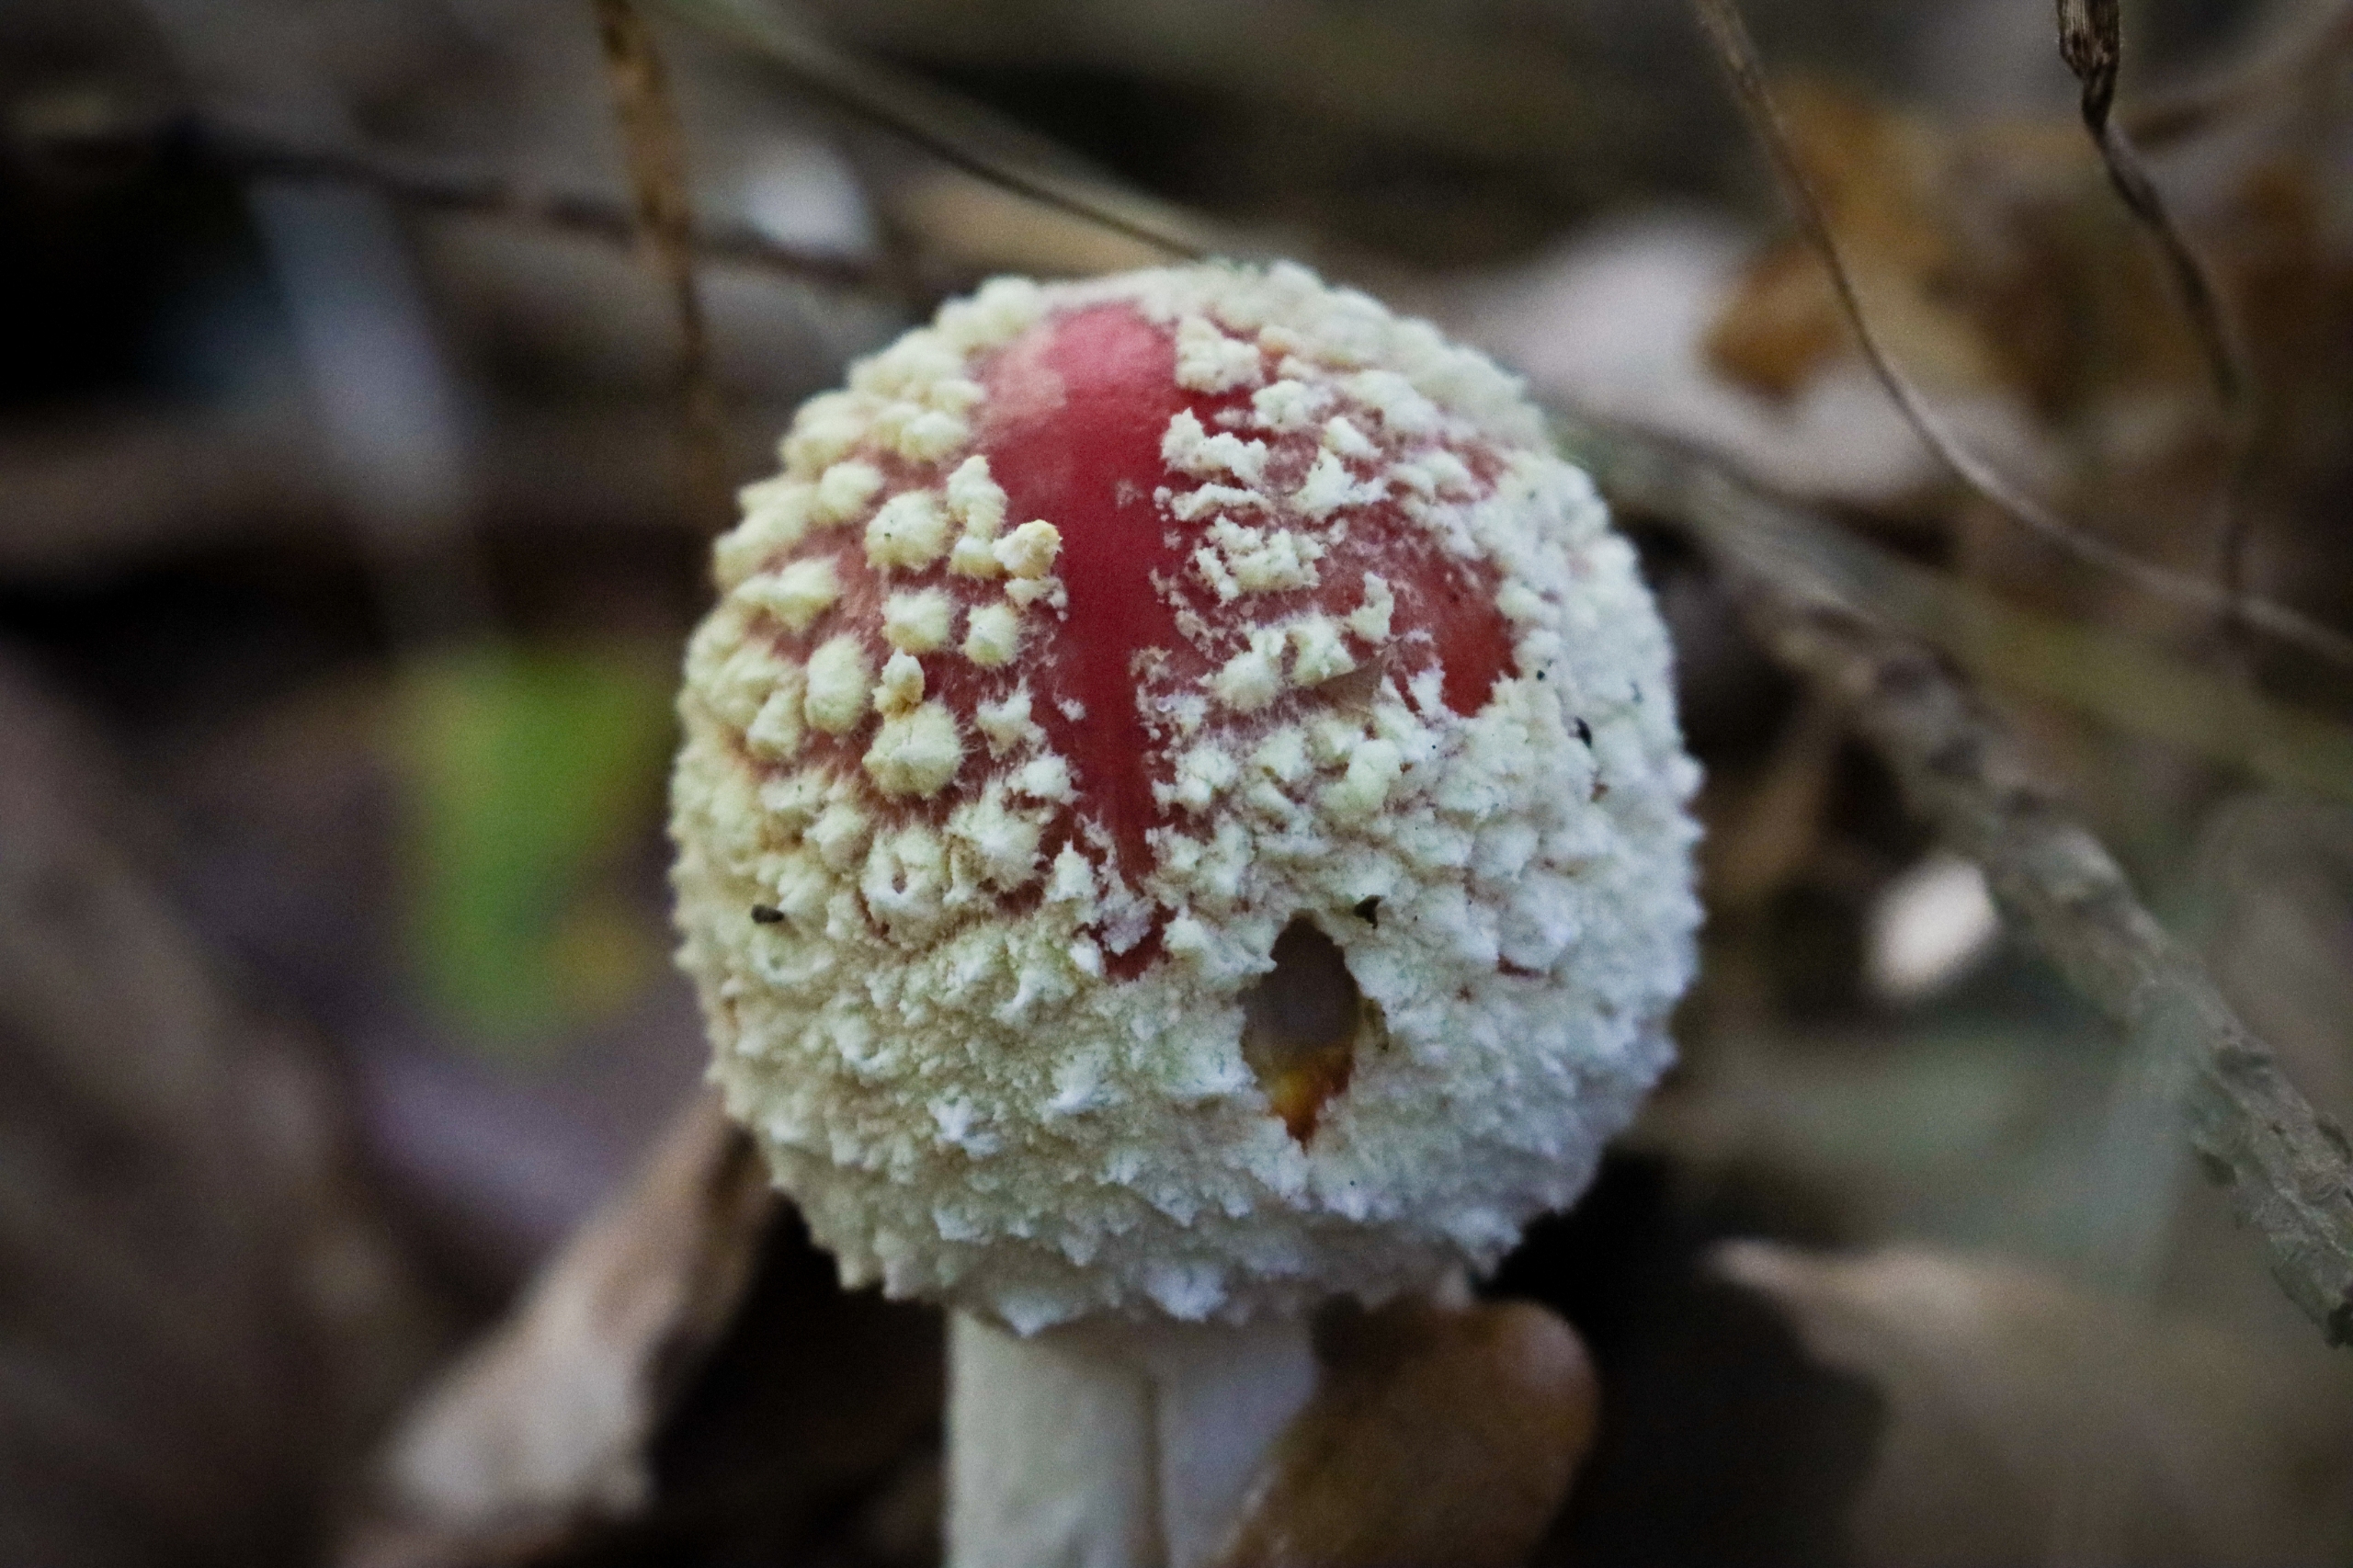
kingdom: Fungi
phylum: Basidiomycota
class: Agaricomycetes
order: Agaricales
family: Amanitaceae
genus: Amanita
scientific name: Amanita muscaria
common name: Rød fluesvamp
